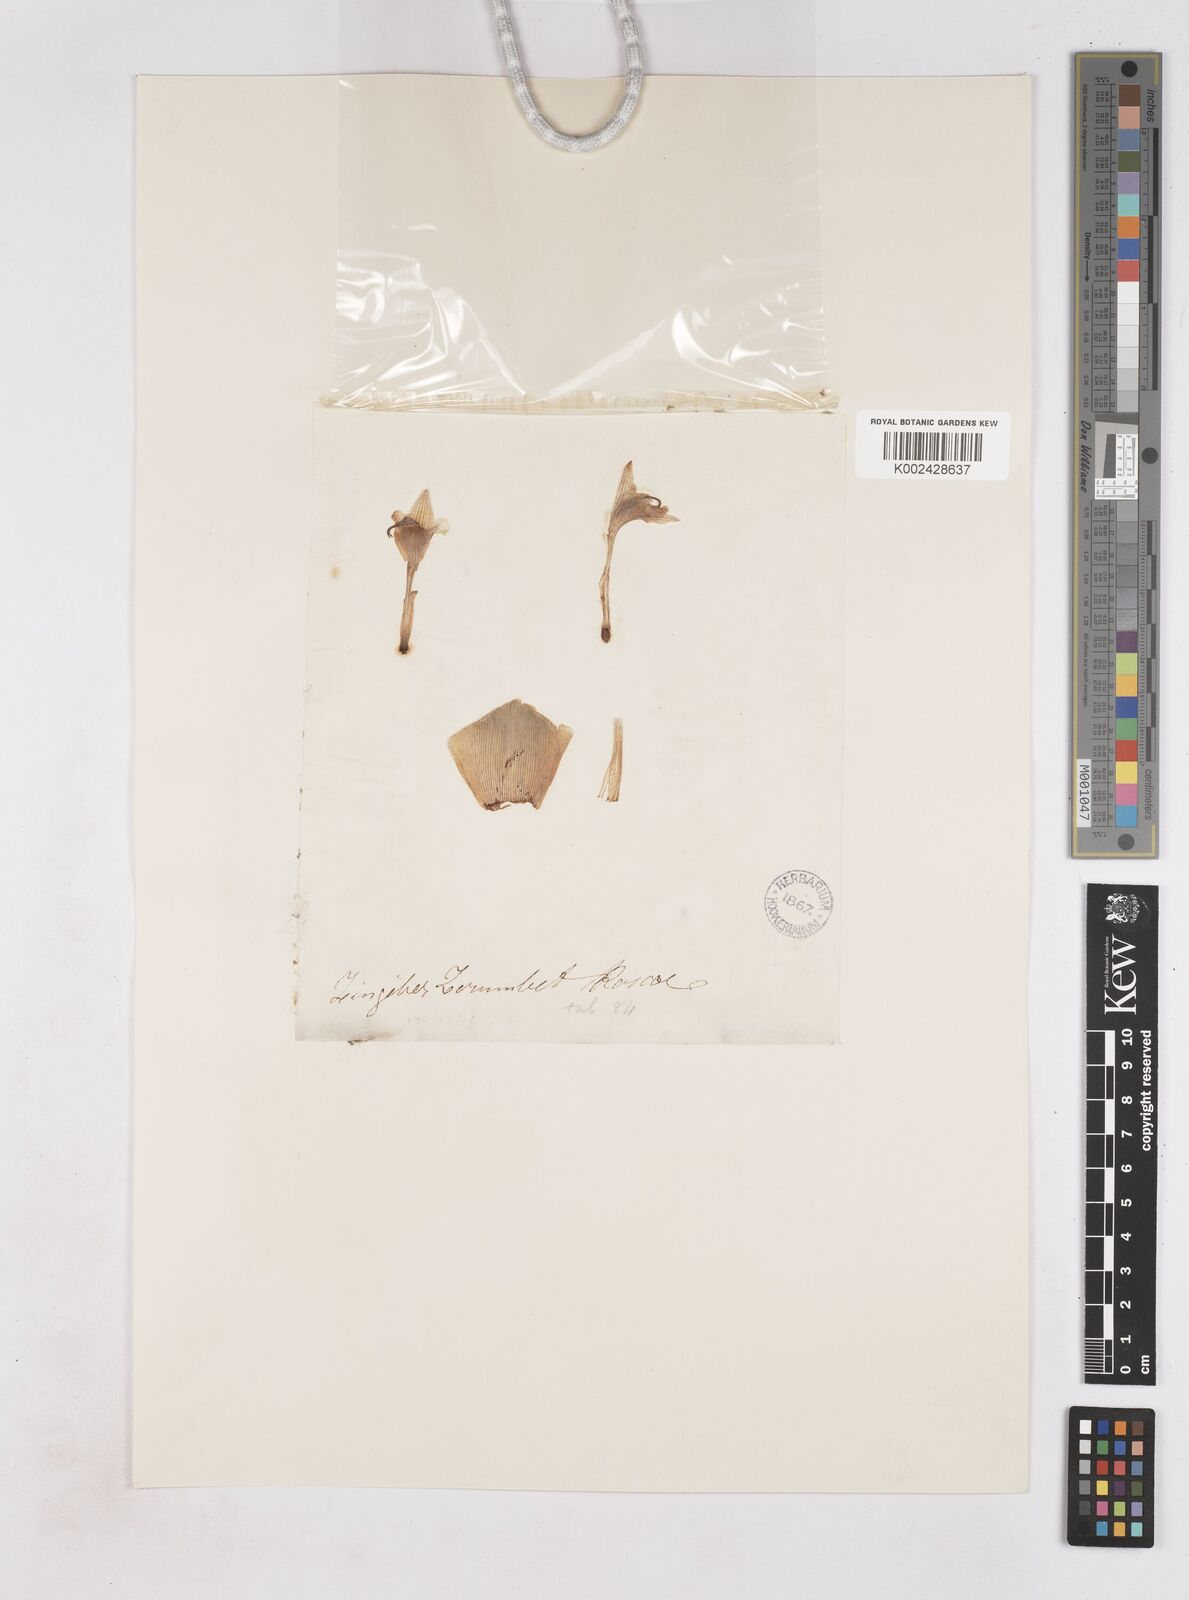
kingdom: Plantae
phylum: Tracheophyta
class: Liliopsida
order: Zingiberales
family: Zingiberaceae
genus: Zingiber
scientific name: Zingiber zerumbet
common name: Bitter ginger
